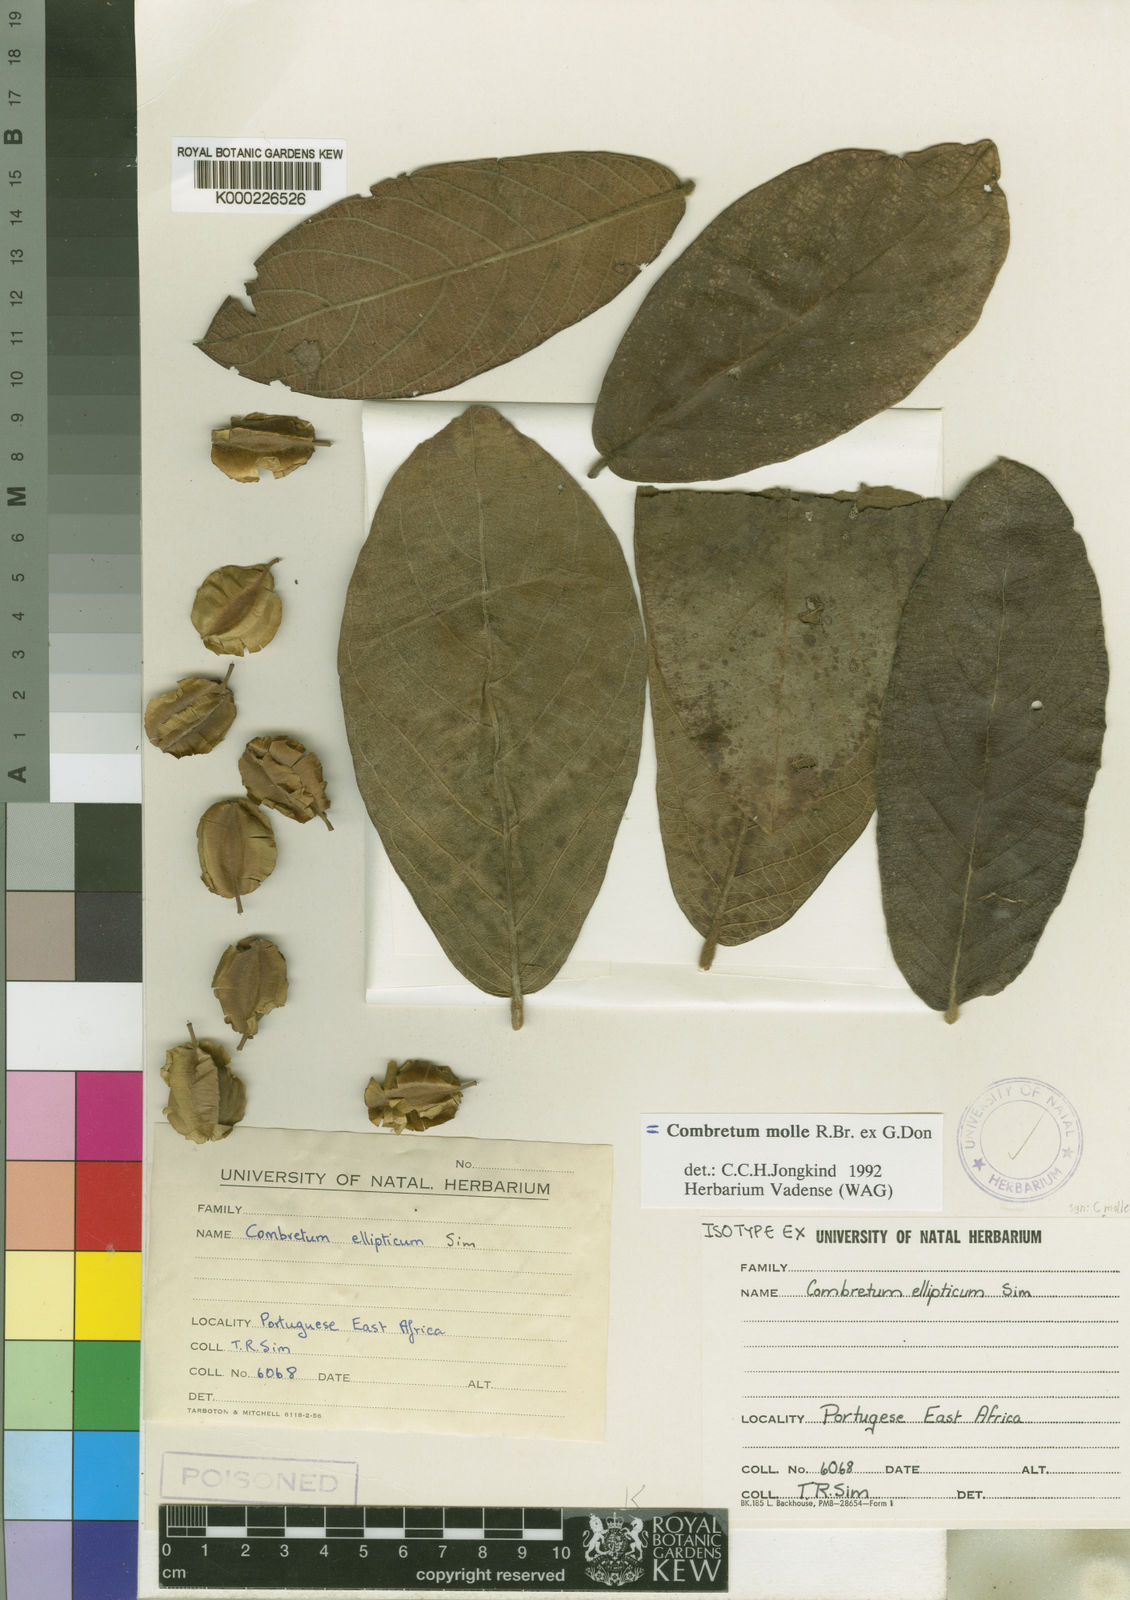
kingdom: Plantae
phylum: Tracheophyta
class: Magnoliopsida
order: Myrtales
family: Combretaceae
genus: Combretum
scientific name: Combretum molle
